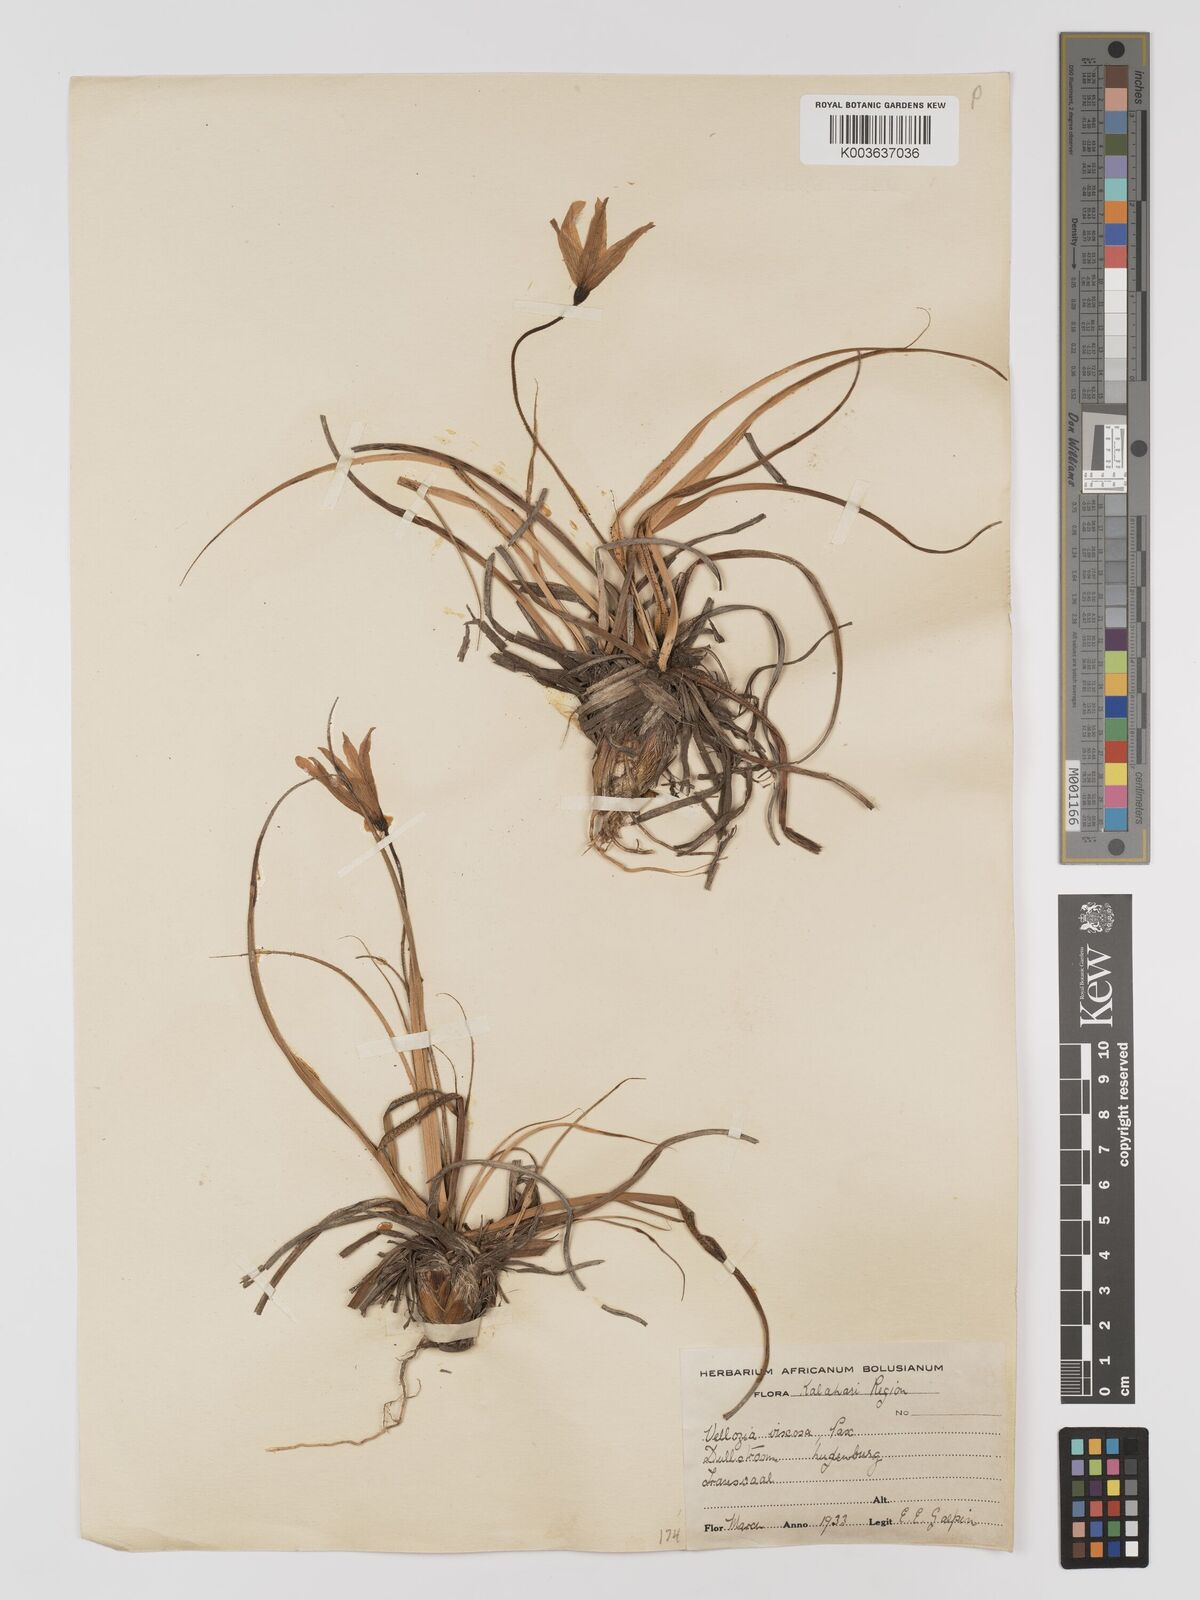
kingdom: Plantae
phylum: Tracheophyta
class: Liliopsida
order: Pandanales
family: Velloziaceae
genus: Xerophyta
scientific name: Xerophyta viscosa
